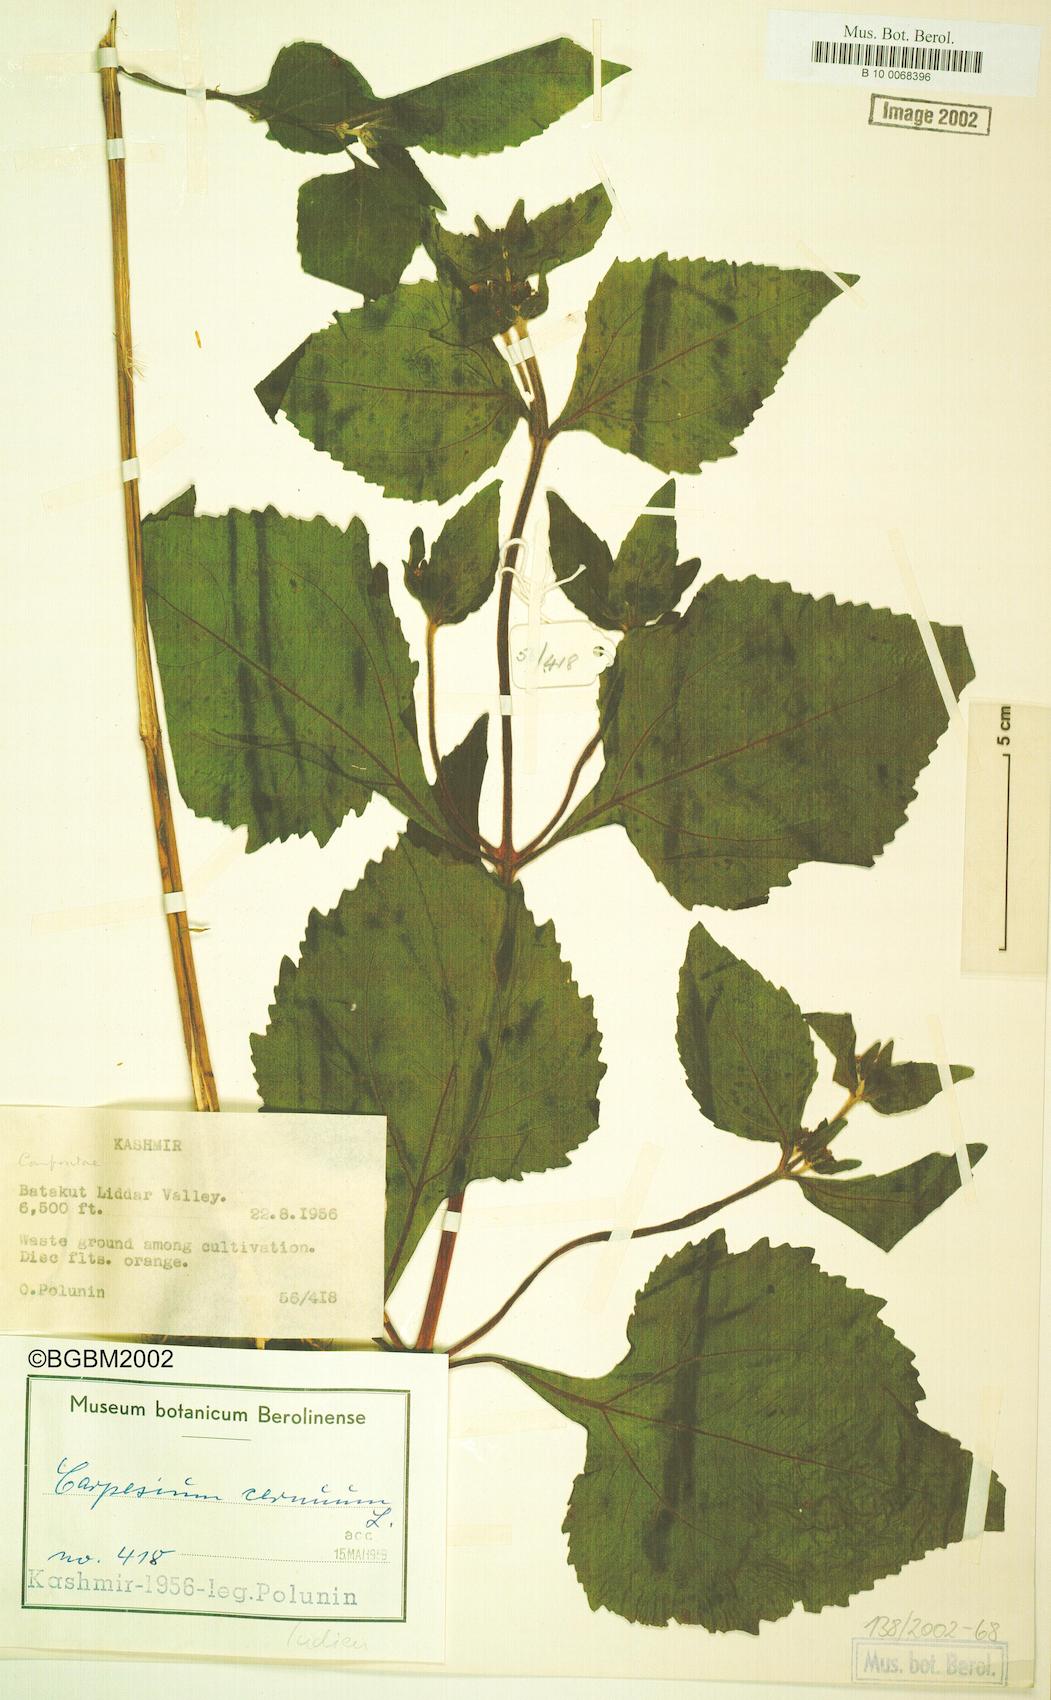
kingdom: Plantae
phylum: Tracheophyta
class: Magnoliopsida
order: Asterales
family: Asteraceae
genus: Carpesium
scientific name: Carpesium cernuum
